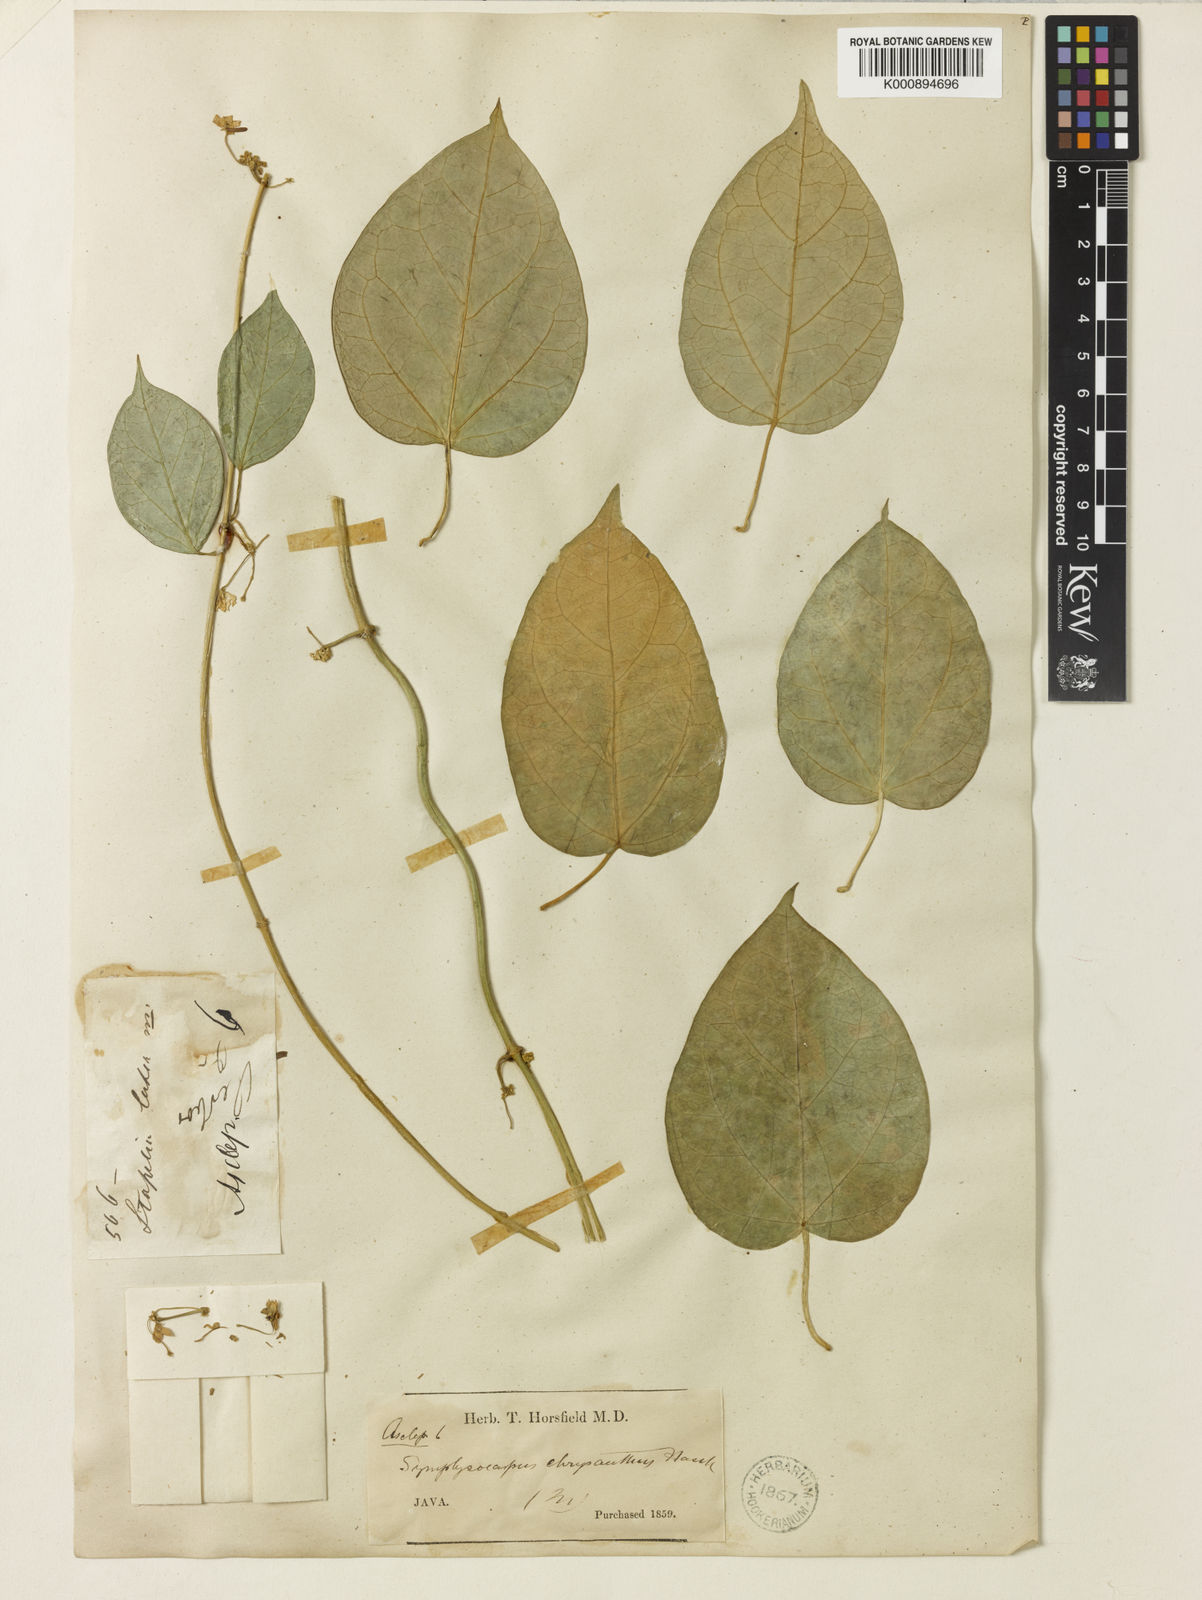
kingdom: Plantae
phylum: Tracheophyta
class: Magnoliopsida
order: Gentianales
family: Apocynaceae
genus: Heterostemma
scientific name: Heterostemma acuminatum
